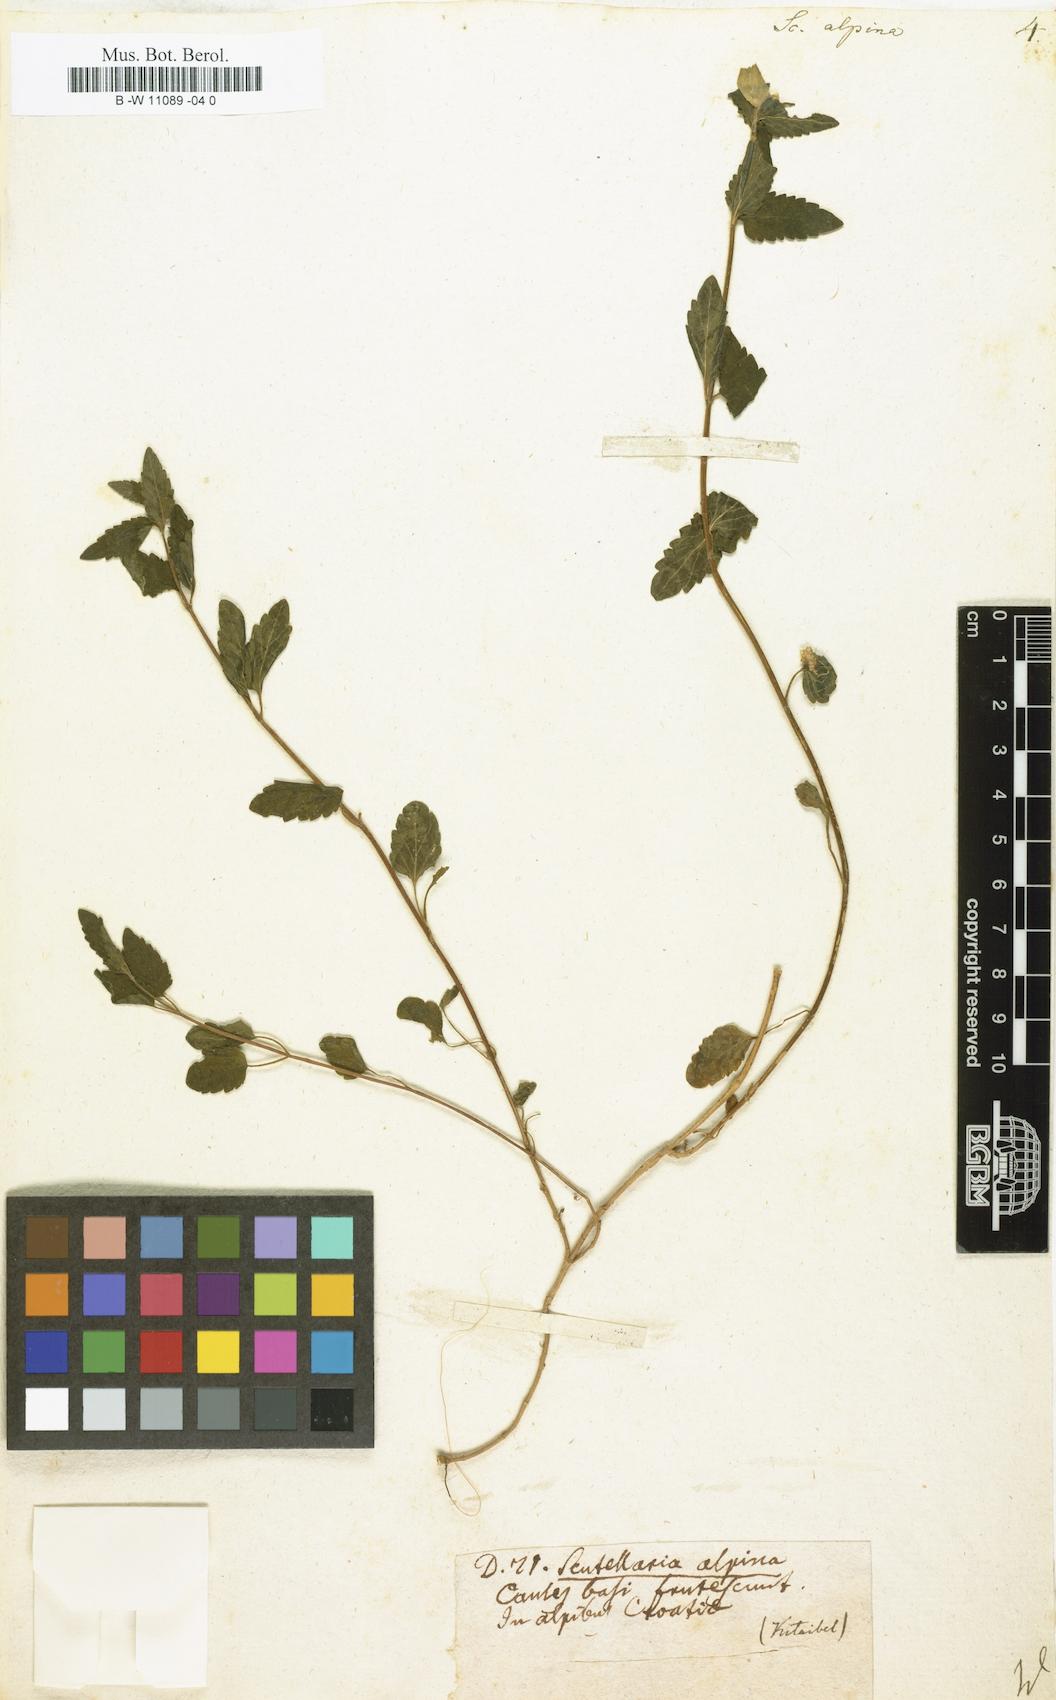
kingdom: Plantae
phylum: Tracheophyta
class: Magnoliopsida
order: Lamiales
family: Lamiaceae
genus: Scutellaria
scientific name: Scutellaria alpina
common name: Alpine scullcap
